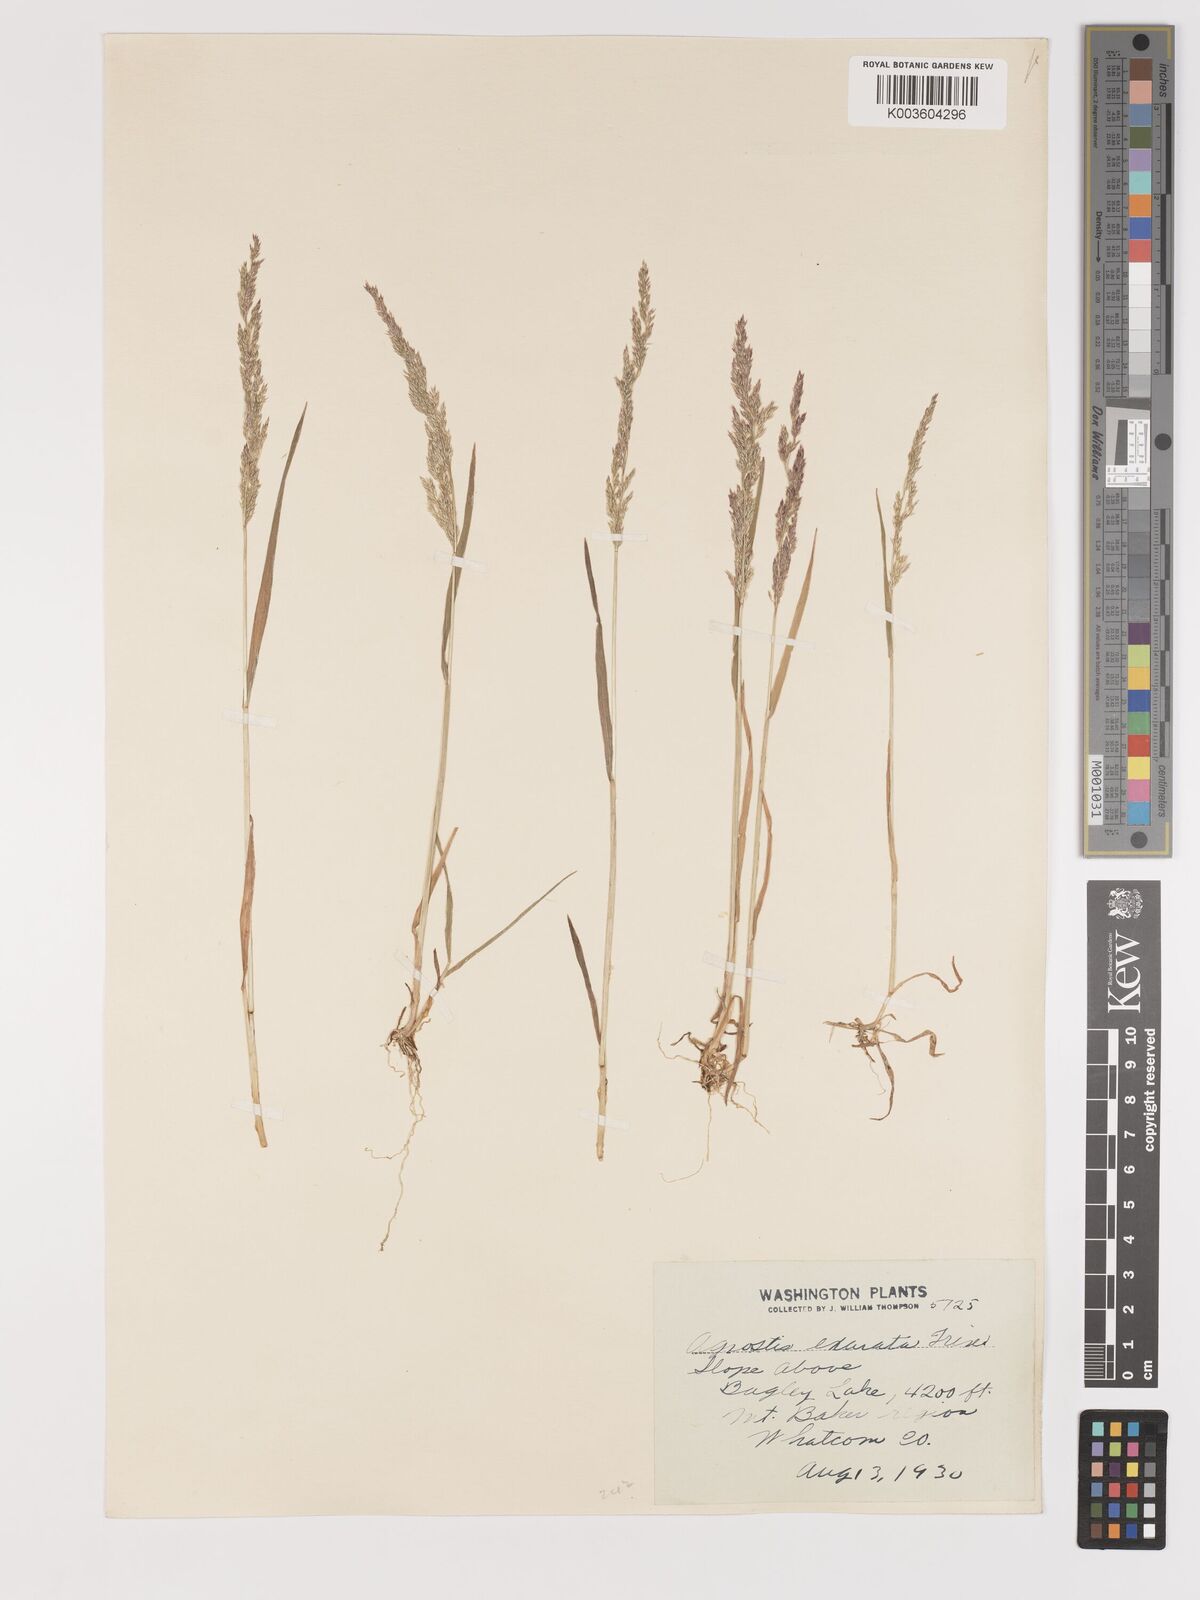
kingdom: Plantae
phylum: Tracheophyta
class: Liliopsida
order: Poales
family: Poaceae
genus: Agrostis
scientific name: Agrostis exarata
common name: Spike bent
